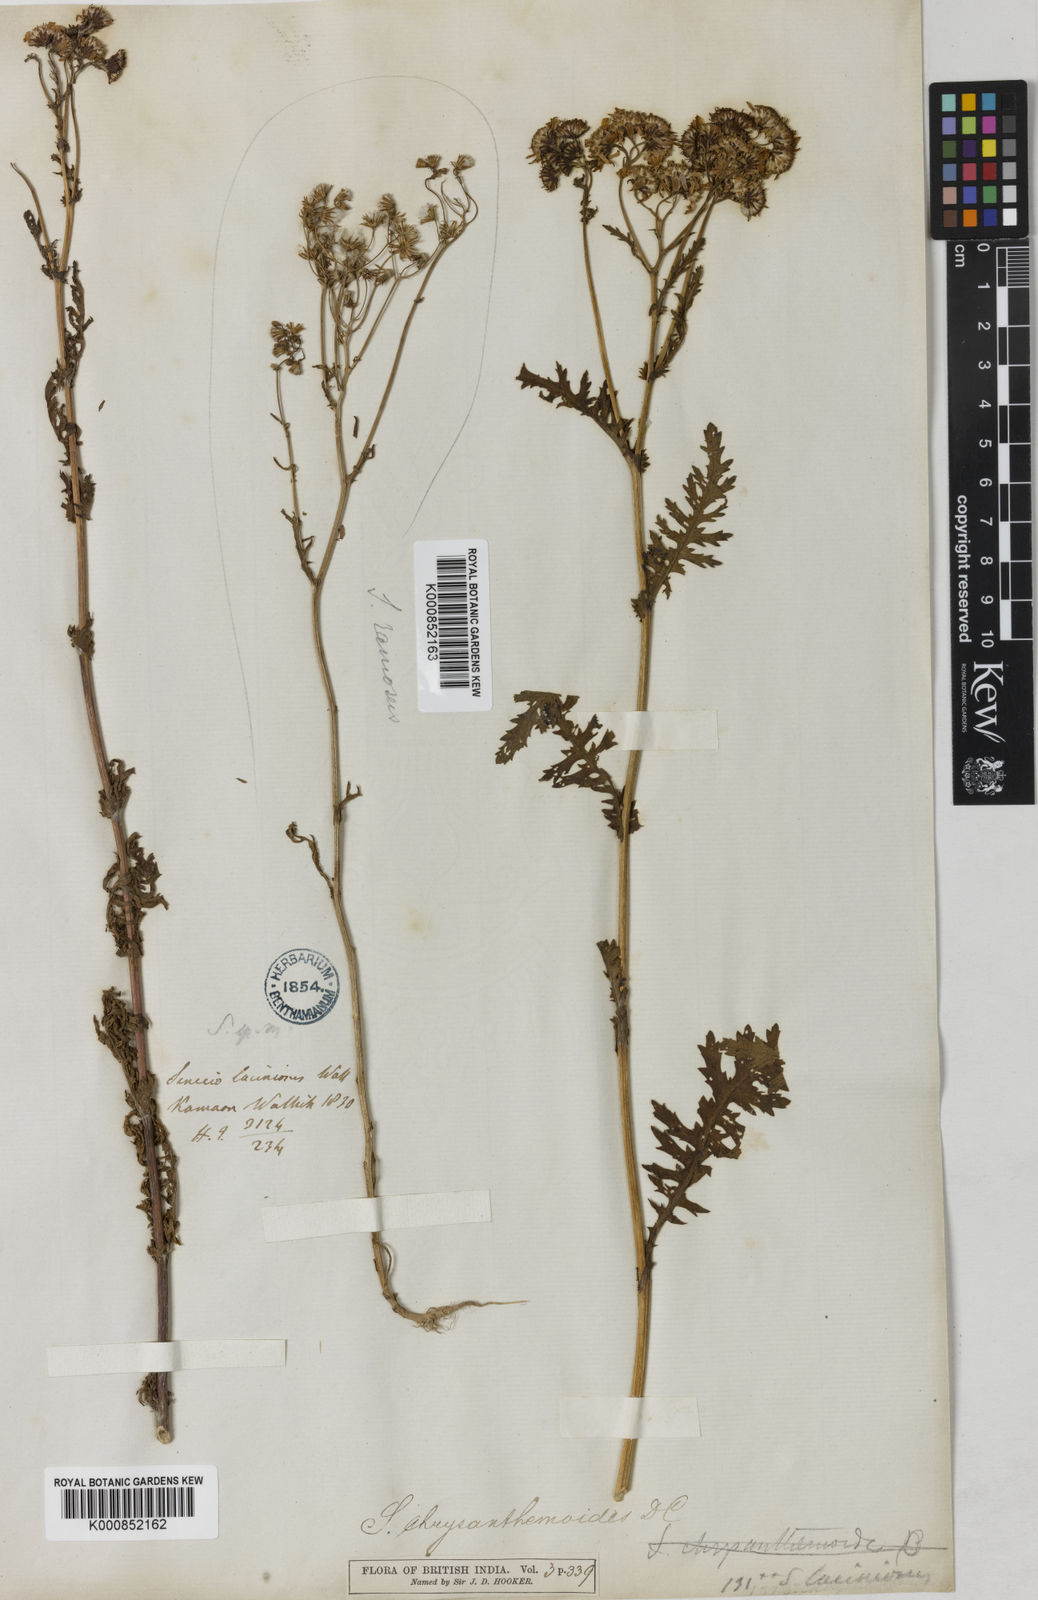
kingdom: Plantae
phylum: Tracheophyta
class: Magnoliopsida
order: Asterales
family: Asteraceae
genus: Jacobaea
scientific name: Jacobaea analoga
